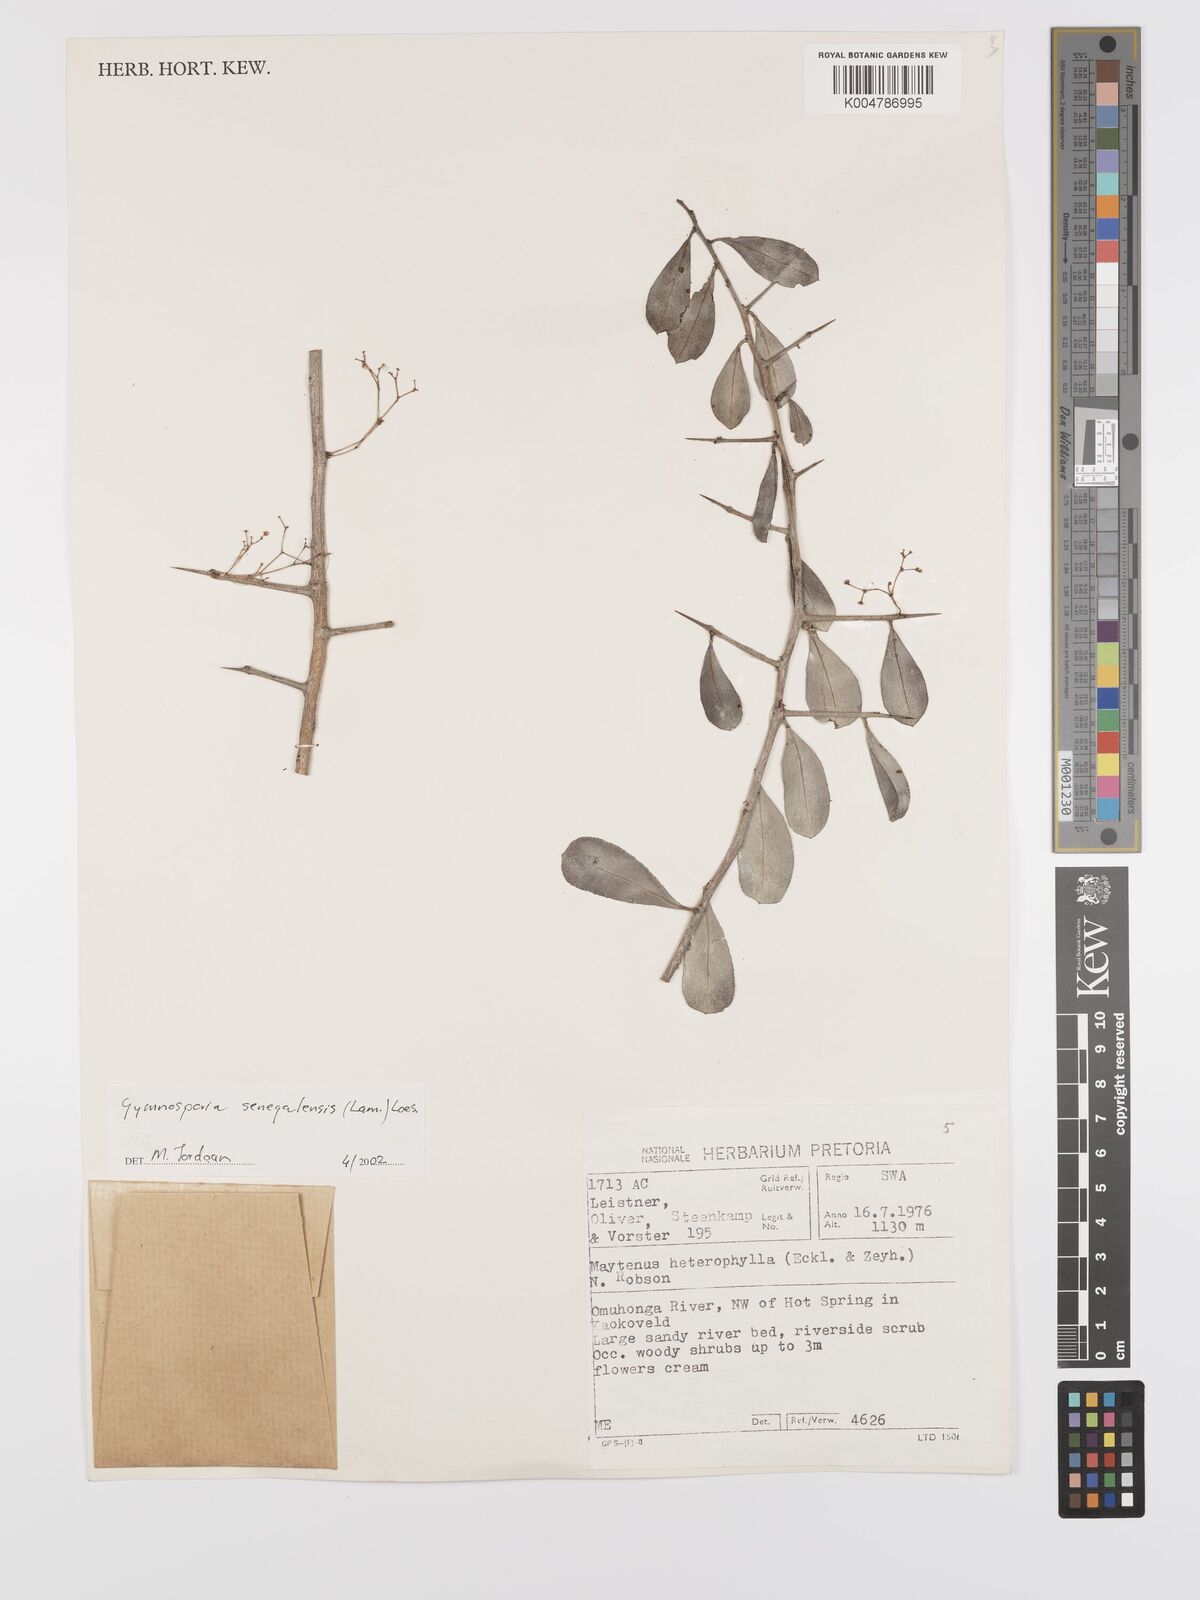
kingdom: Plantae
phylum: Tracheophyta
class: Magnoliopsida
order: Celastrales
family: Celastraceae
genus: Gymnosporia
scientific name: Gymnosporia senegalensis
